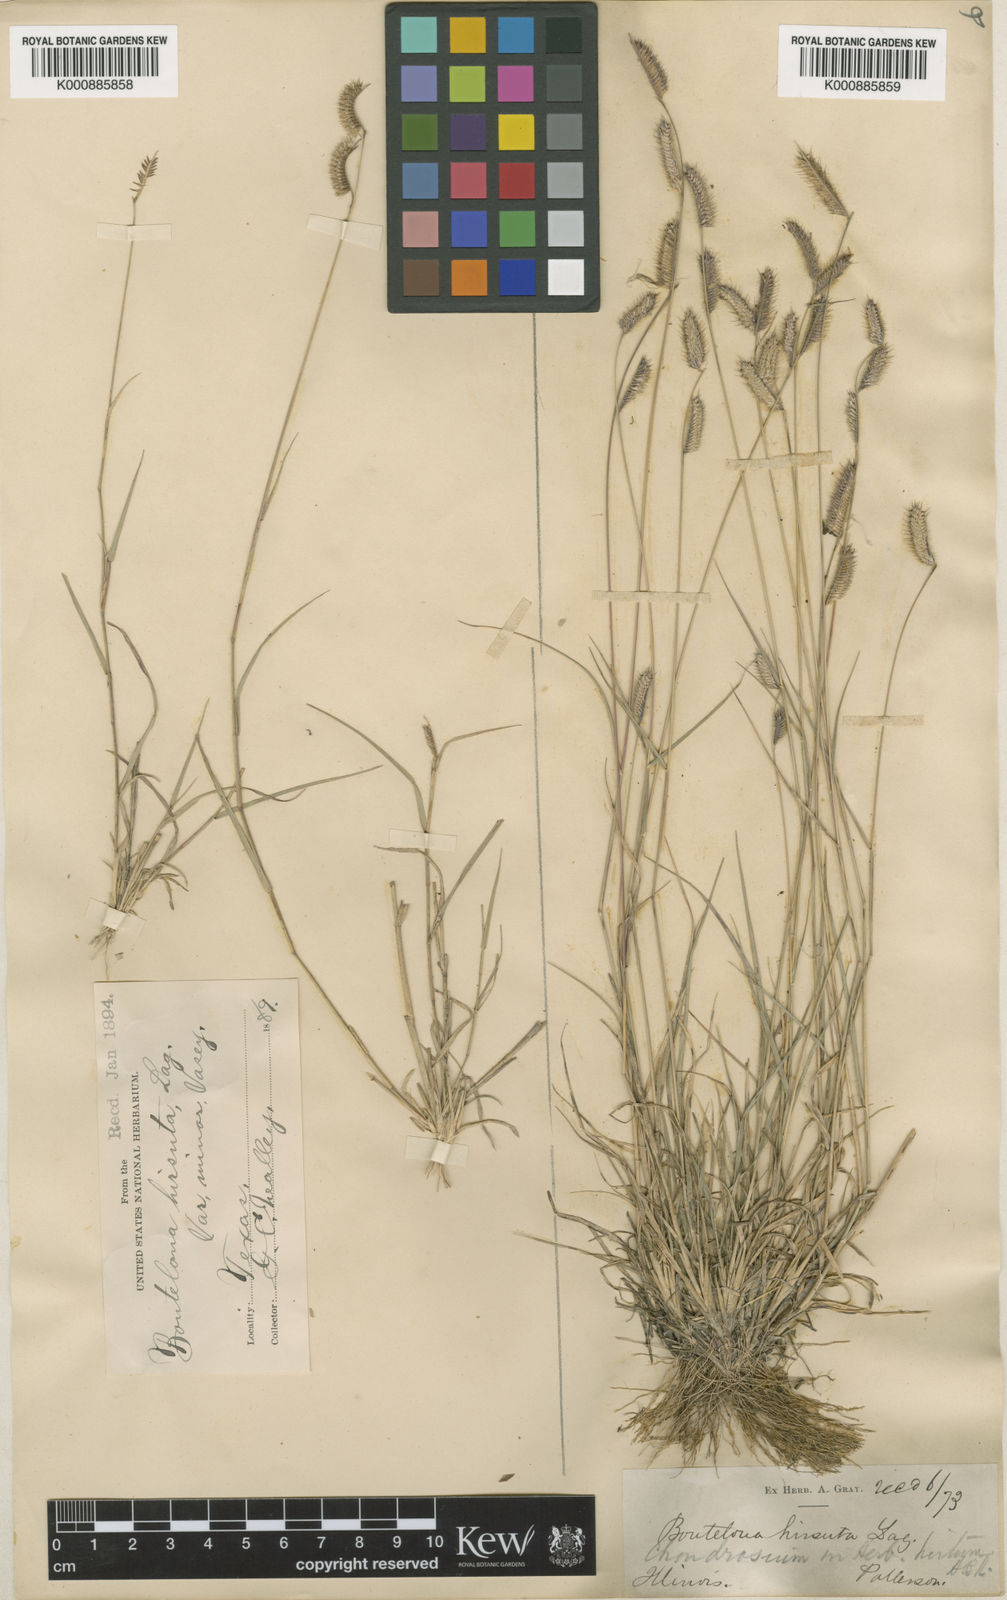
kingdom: Plantae
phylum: Tracheophyta
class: Liliopsida
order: Poales
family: Poaceae
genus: Bouteloua
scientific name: Bouteloua
